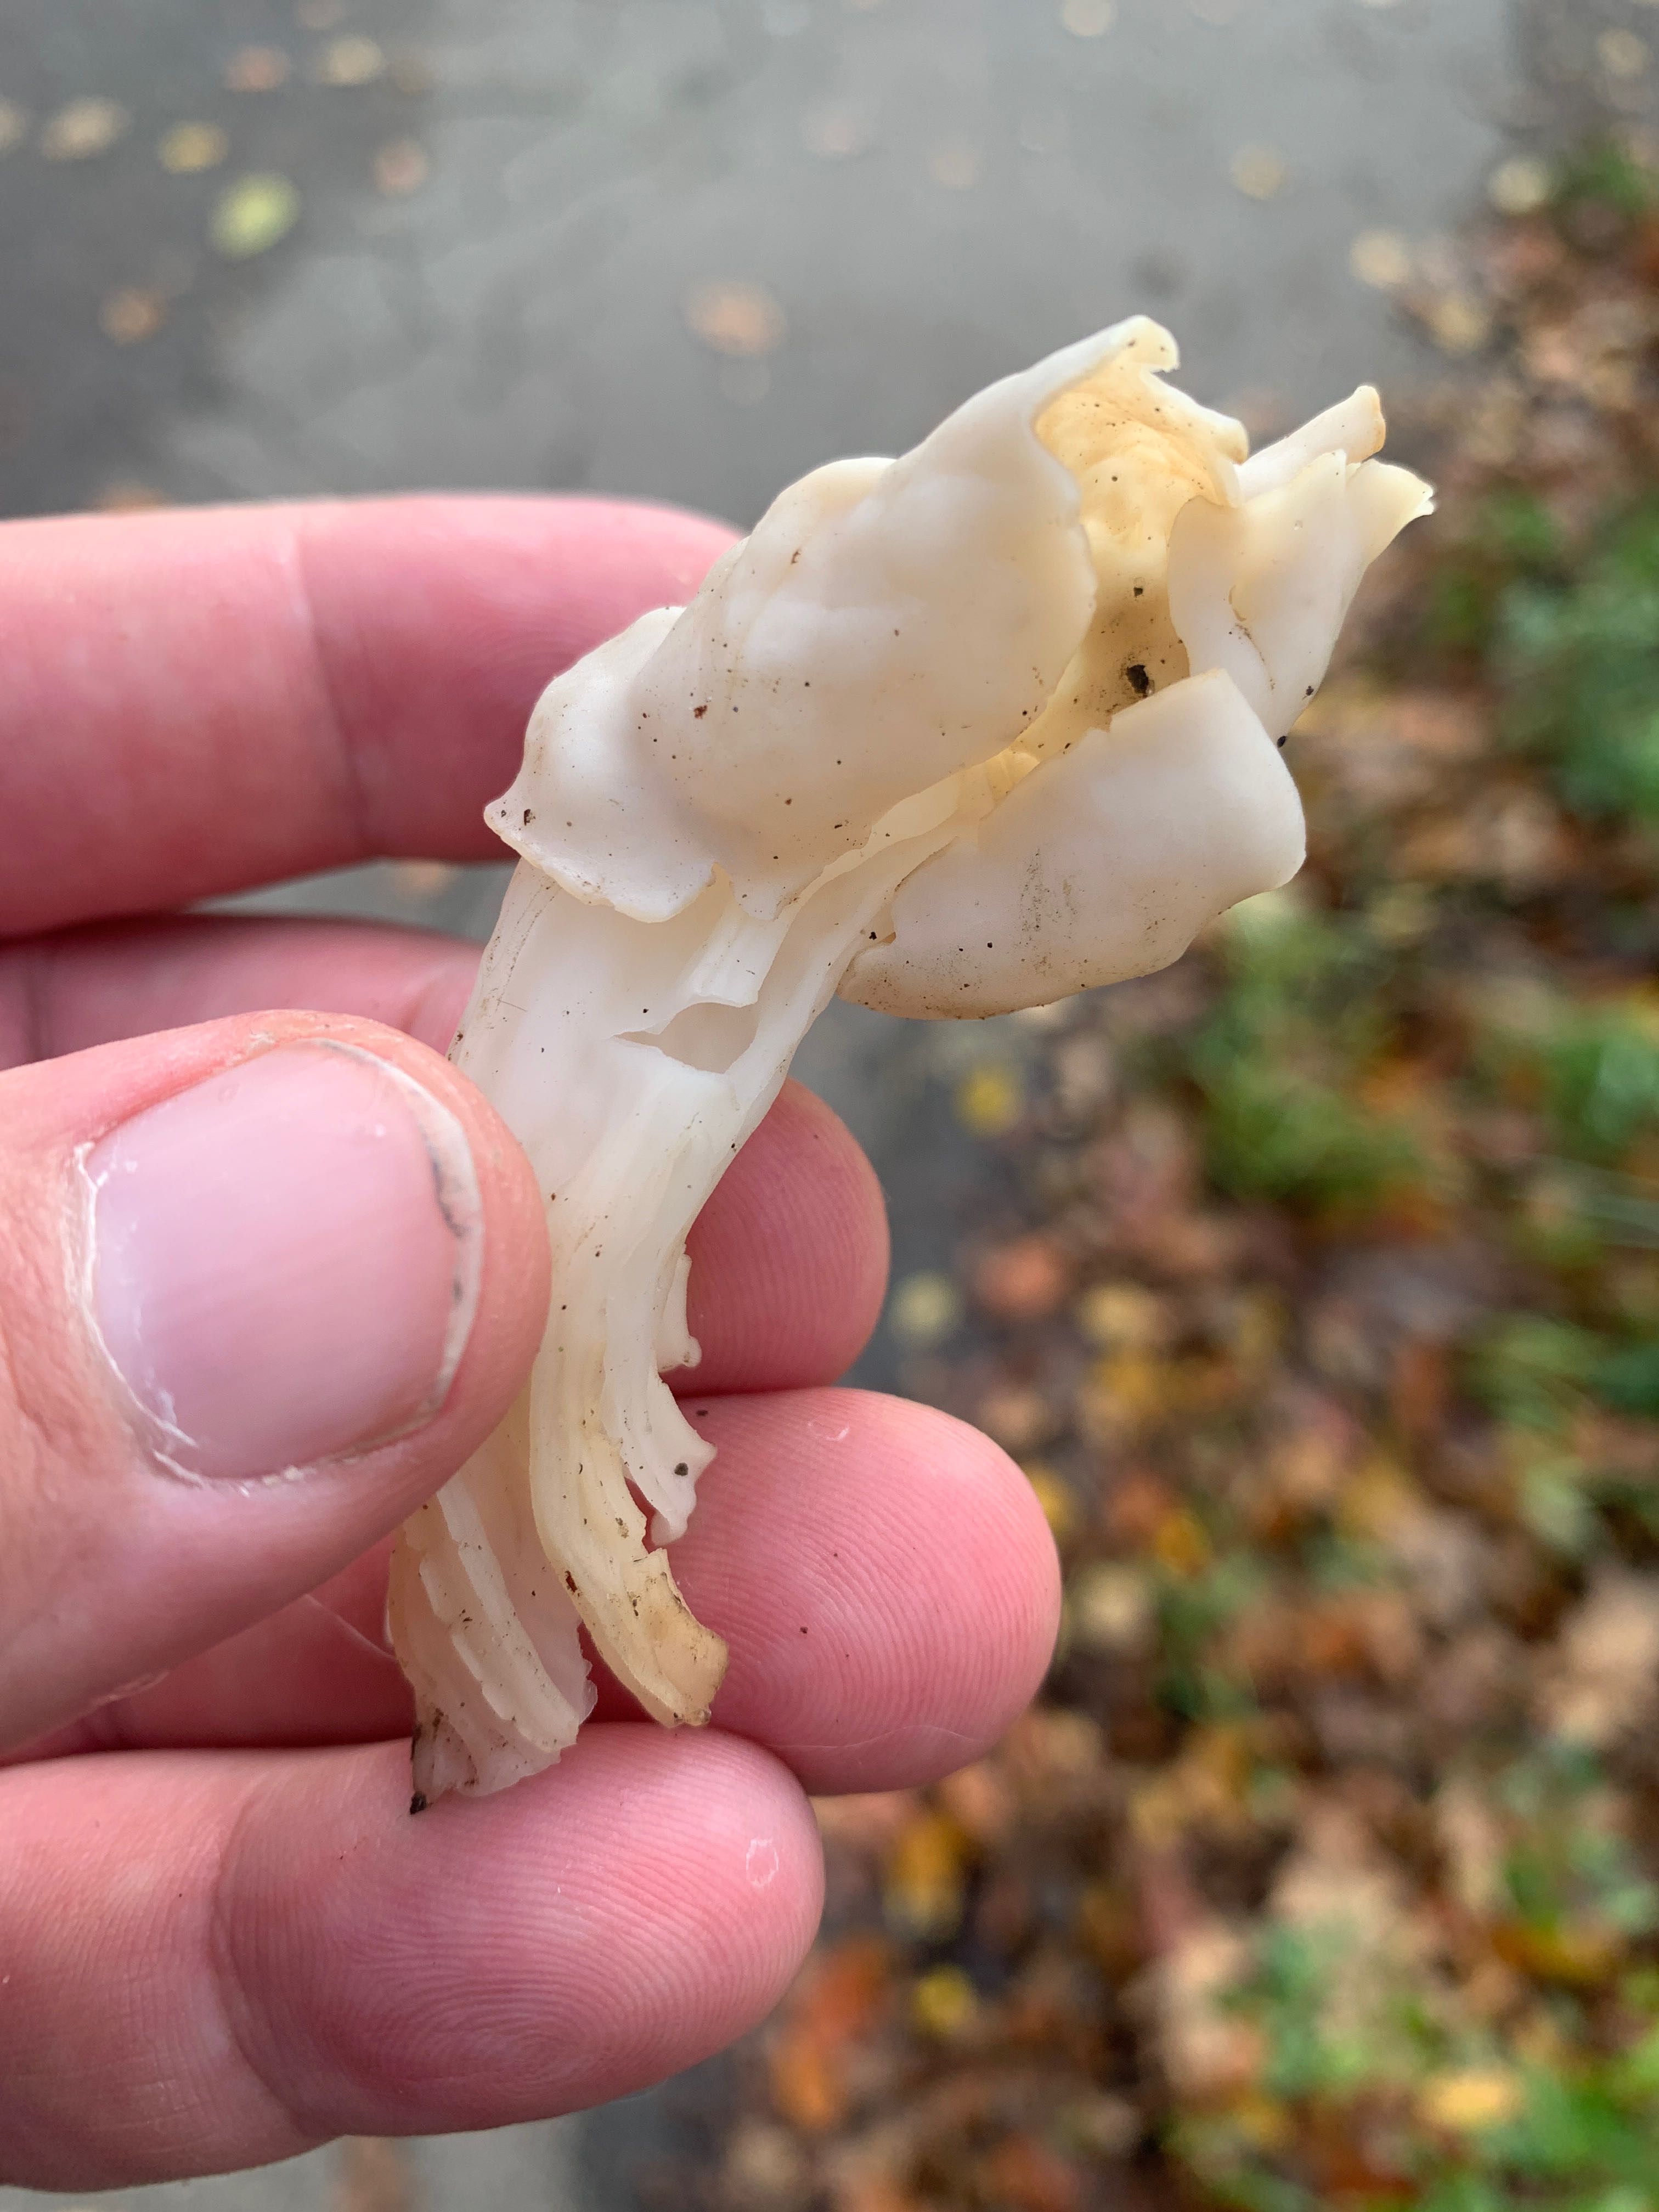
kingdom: Fungi
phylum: Ascomycota
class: Pezizomycetes
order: Pezizales
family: Helvellaceae
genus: Helvella
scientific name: Helvella crispa
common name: kruset foldhat
